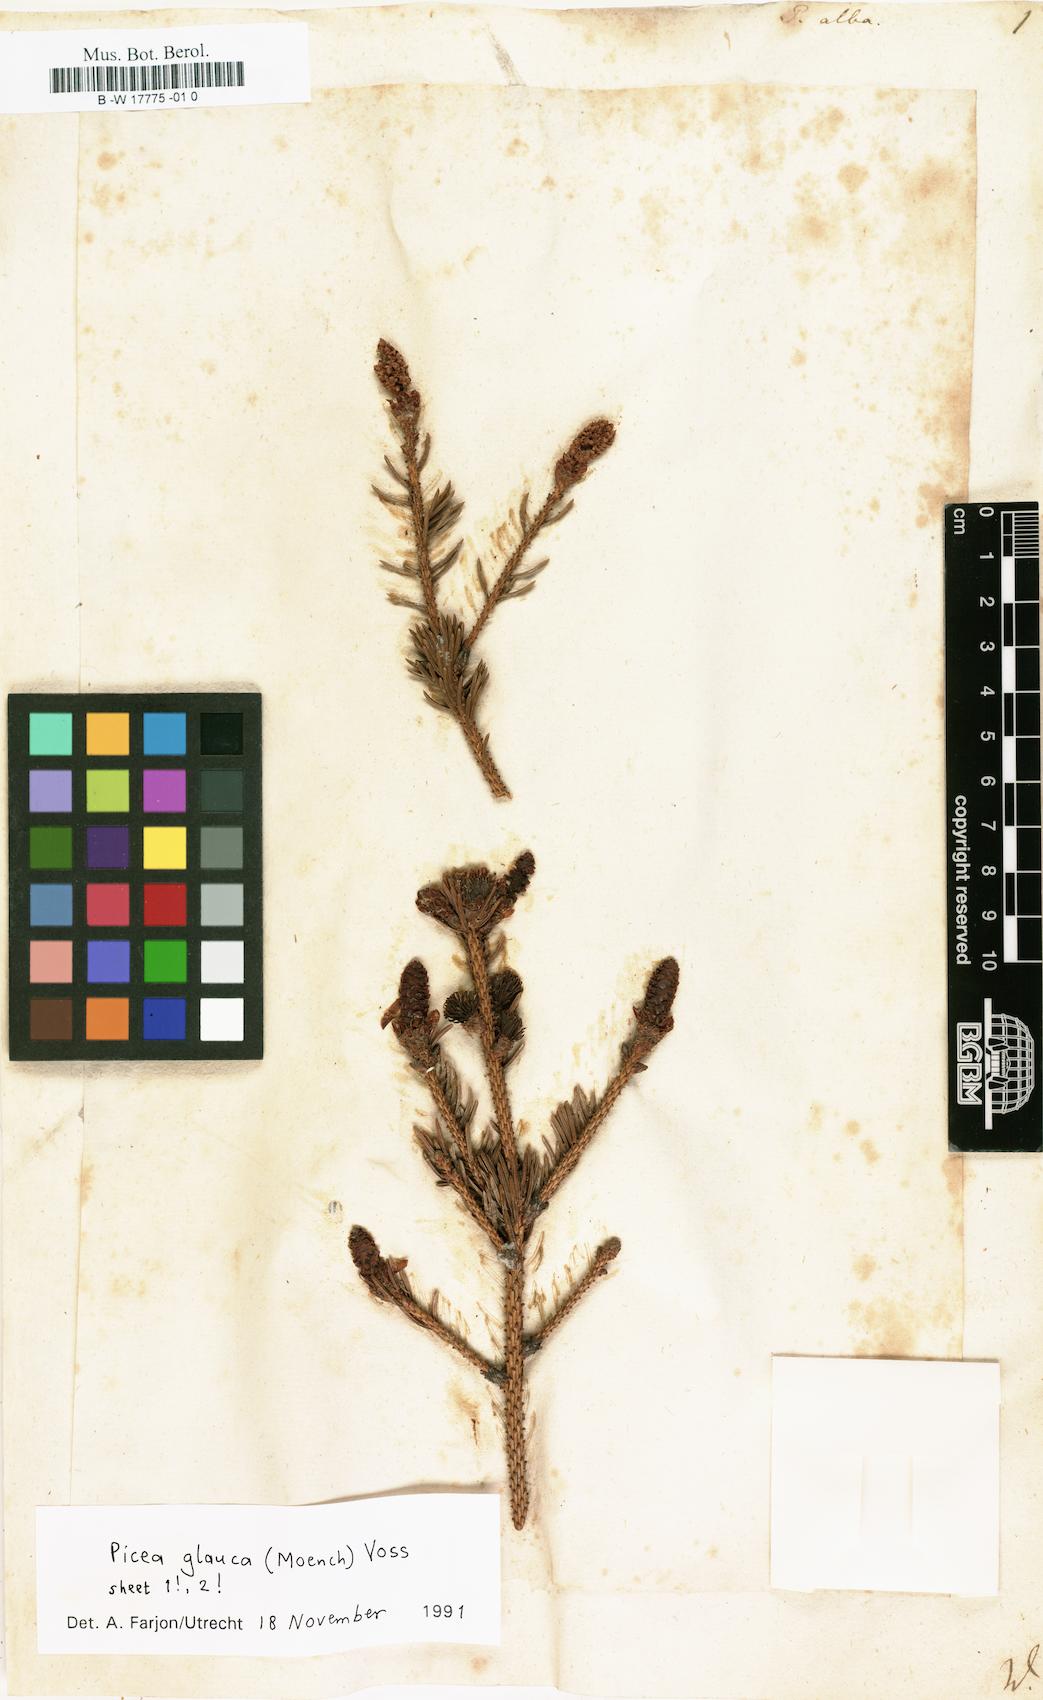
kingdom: Plantae
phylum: Tracheophyta
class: Pinopsida
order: Pinales
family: Pinaceae
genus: Picea
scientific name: Picea glauca
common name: White spruce
